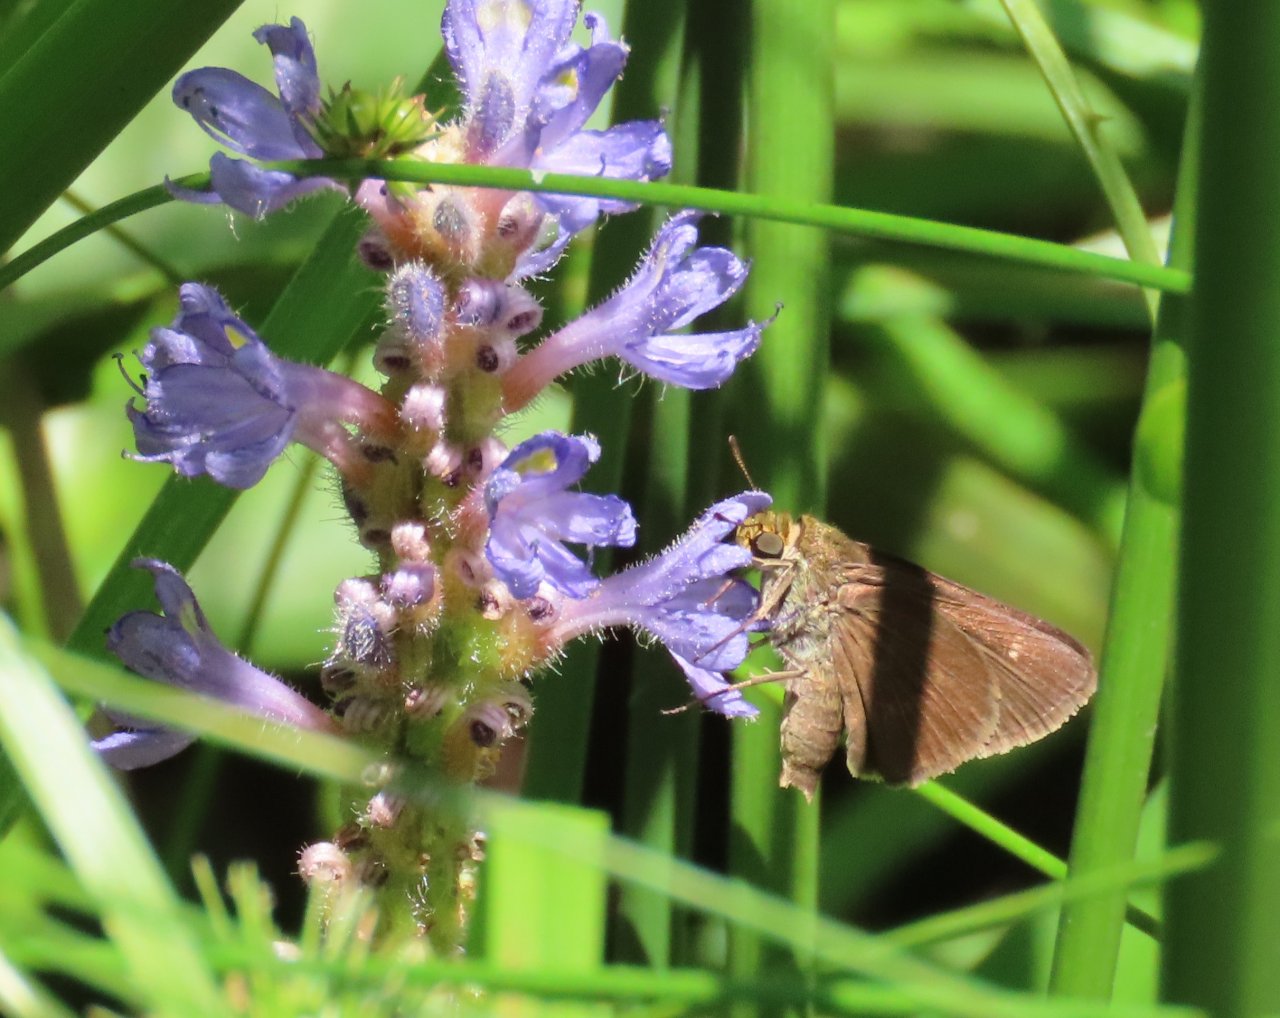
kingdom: Animalia
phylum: Arthropoda
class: Insecta
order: Lepidoptera
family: Hesperiidae
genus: Euphyes
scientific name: Euphyes vestris
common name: Dun Skipper
